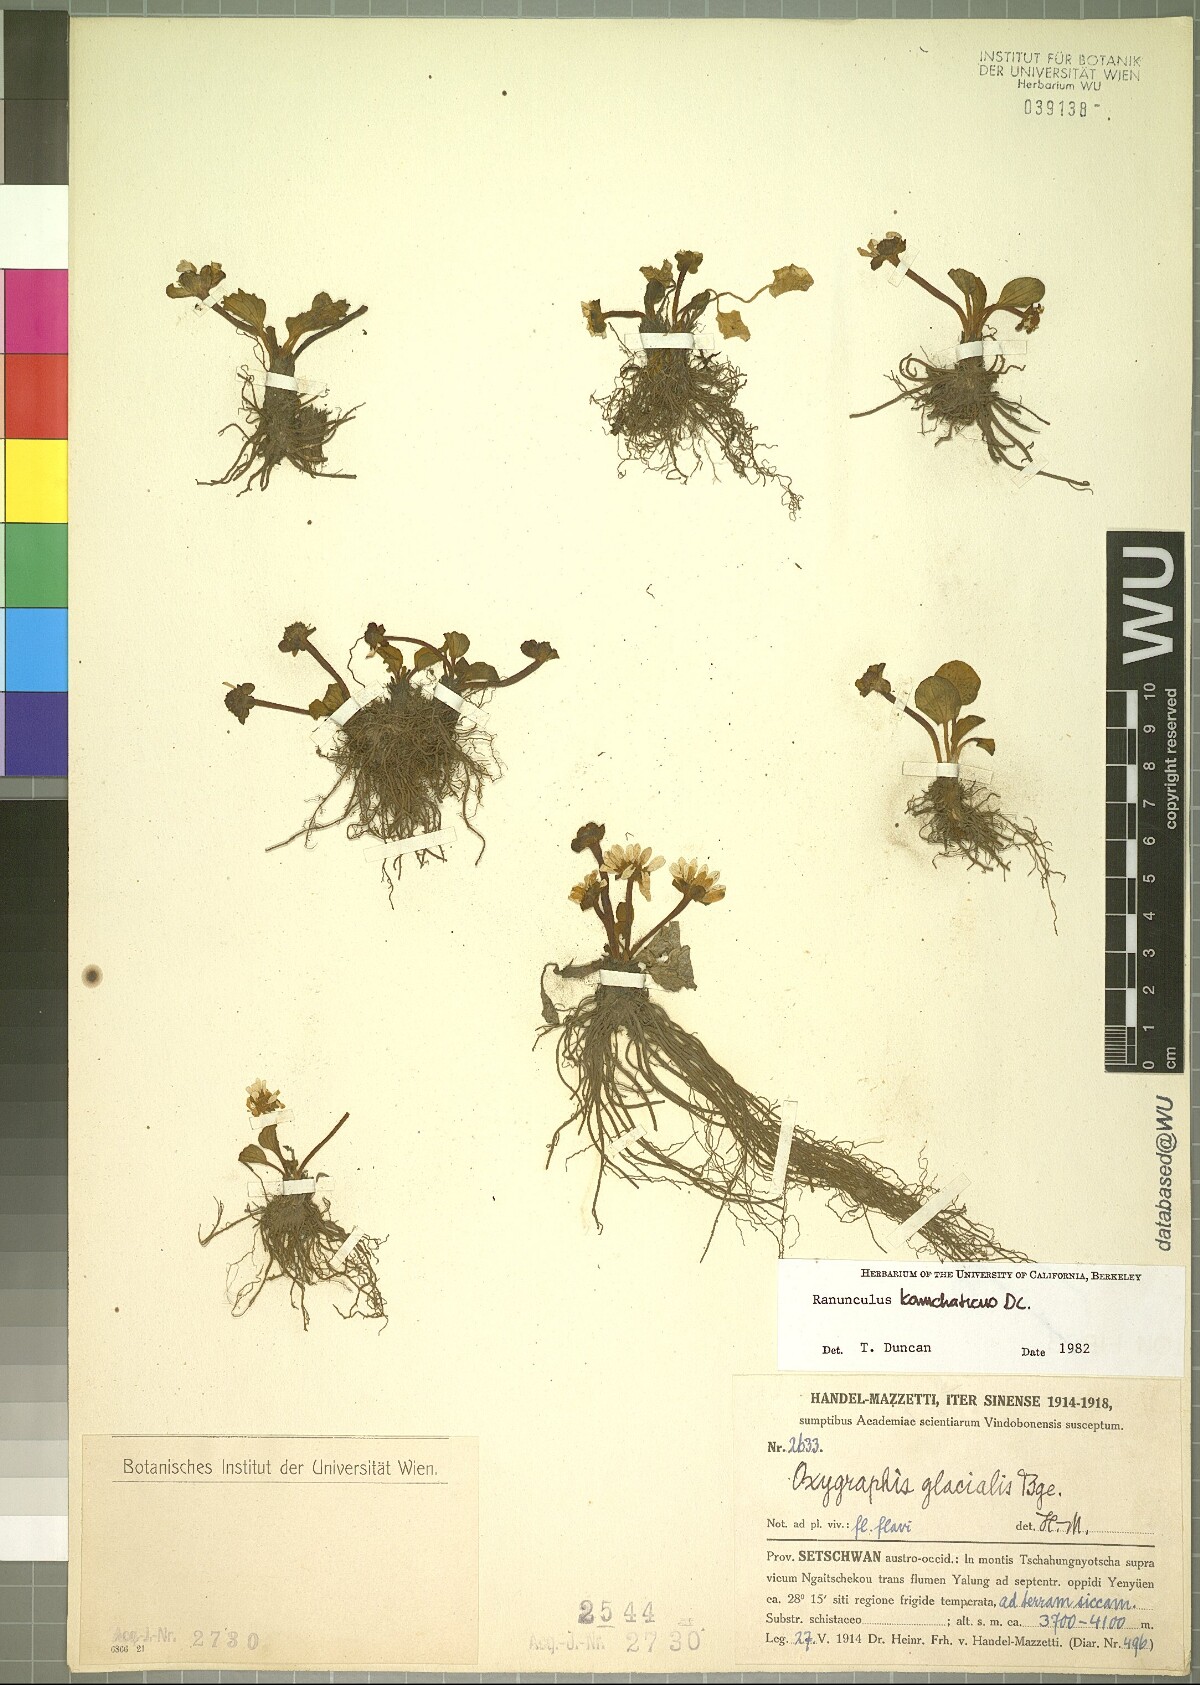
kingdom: Plantae
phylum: Tracheophyta
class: Magnoliopsida
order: Ranunculales
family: Ranunculaceae
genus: Oxygraphis
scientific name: Oxygraphis kamchatica
